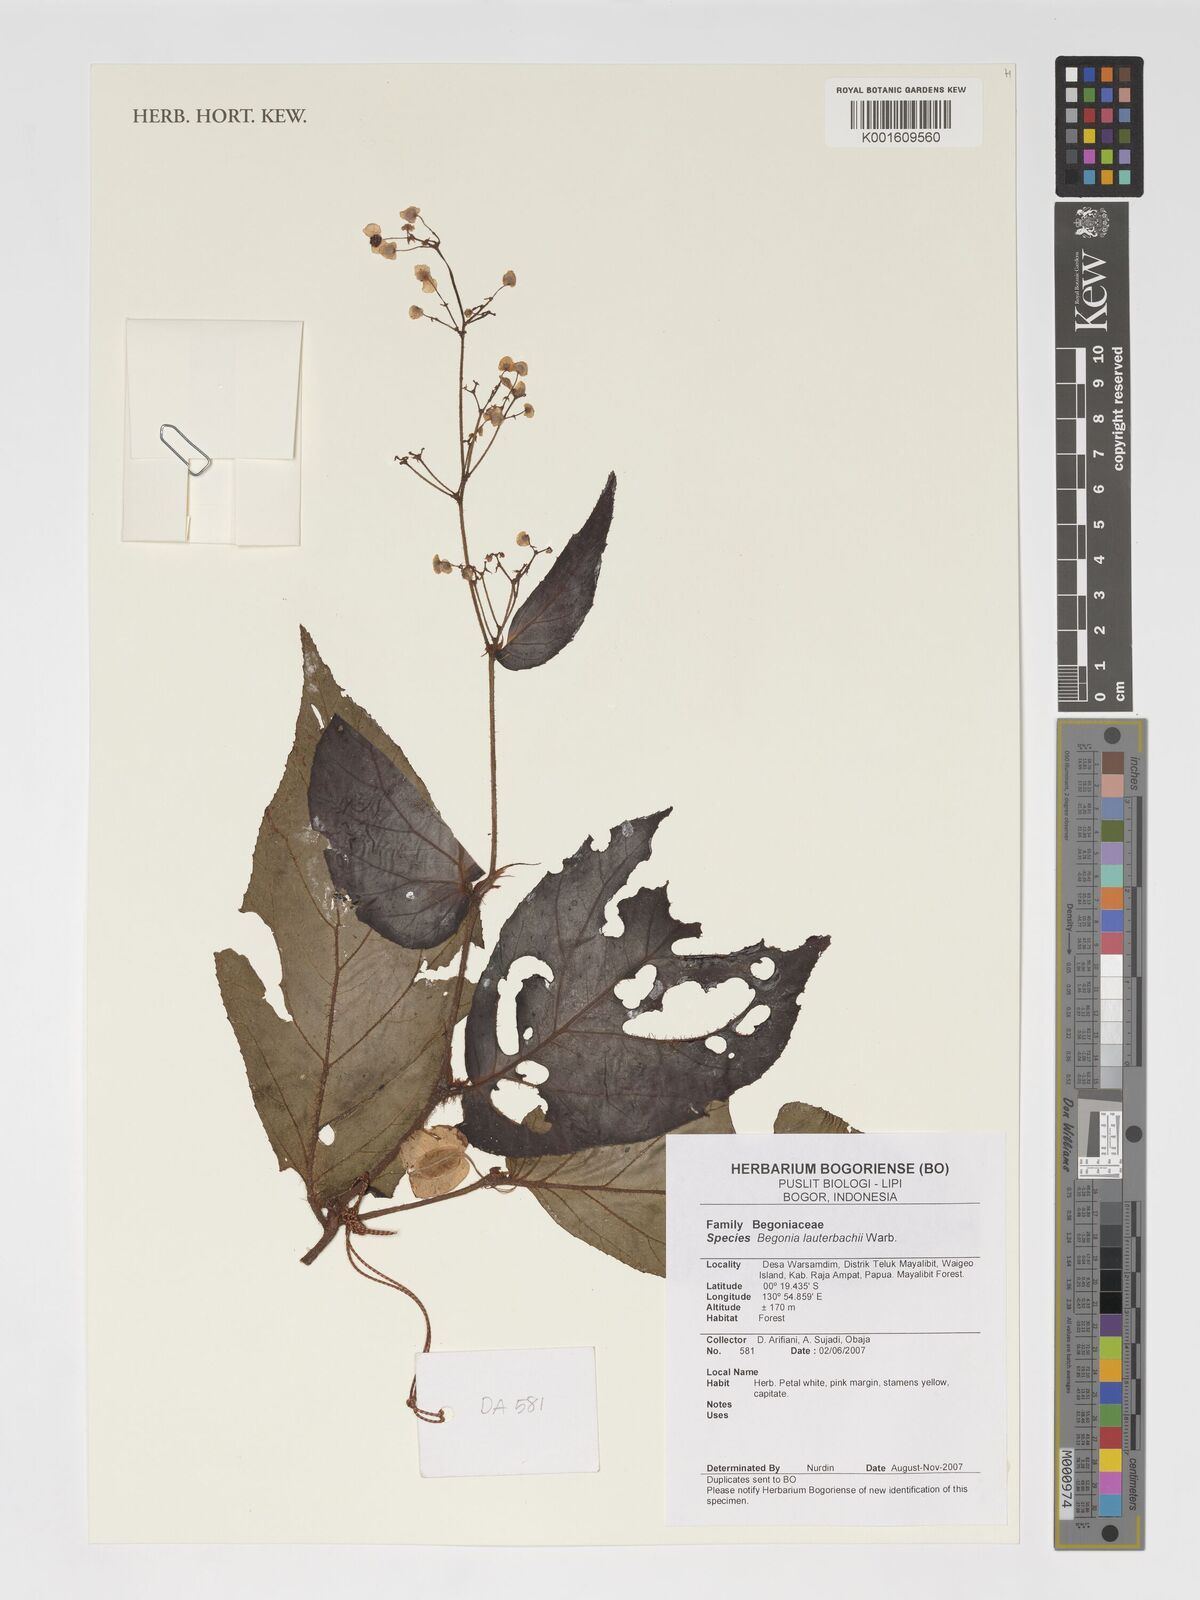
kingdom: Plantae
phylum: Tracheophyta
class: Magnoliopsida
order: Cucurbitales
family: Begoniaceae
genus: Begonia
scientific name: Begonia lauterbachii
